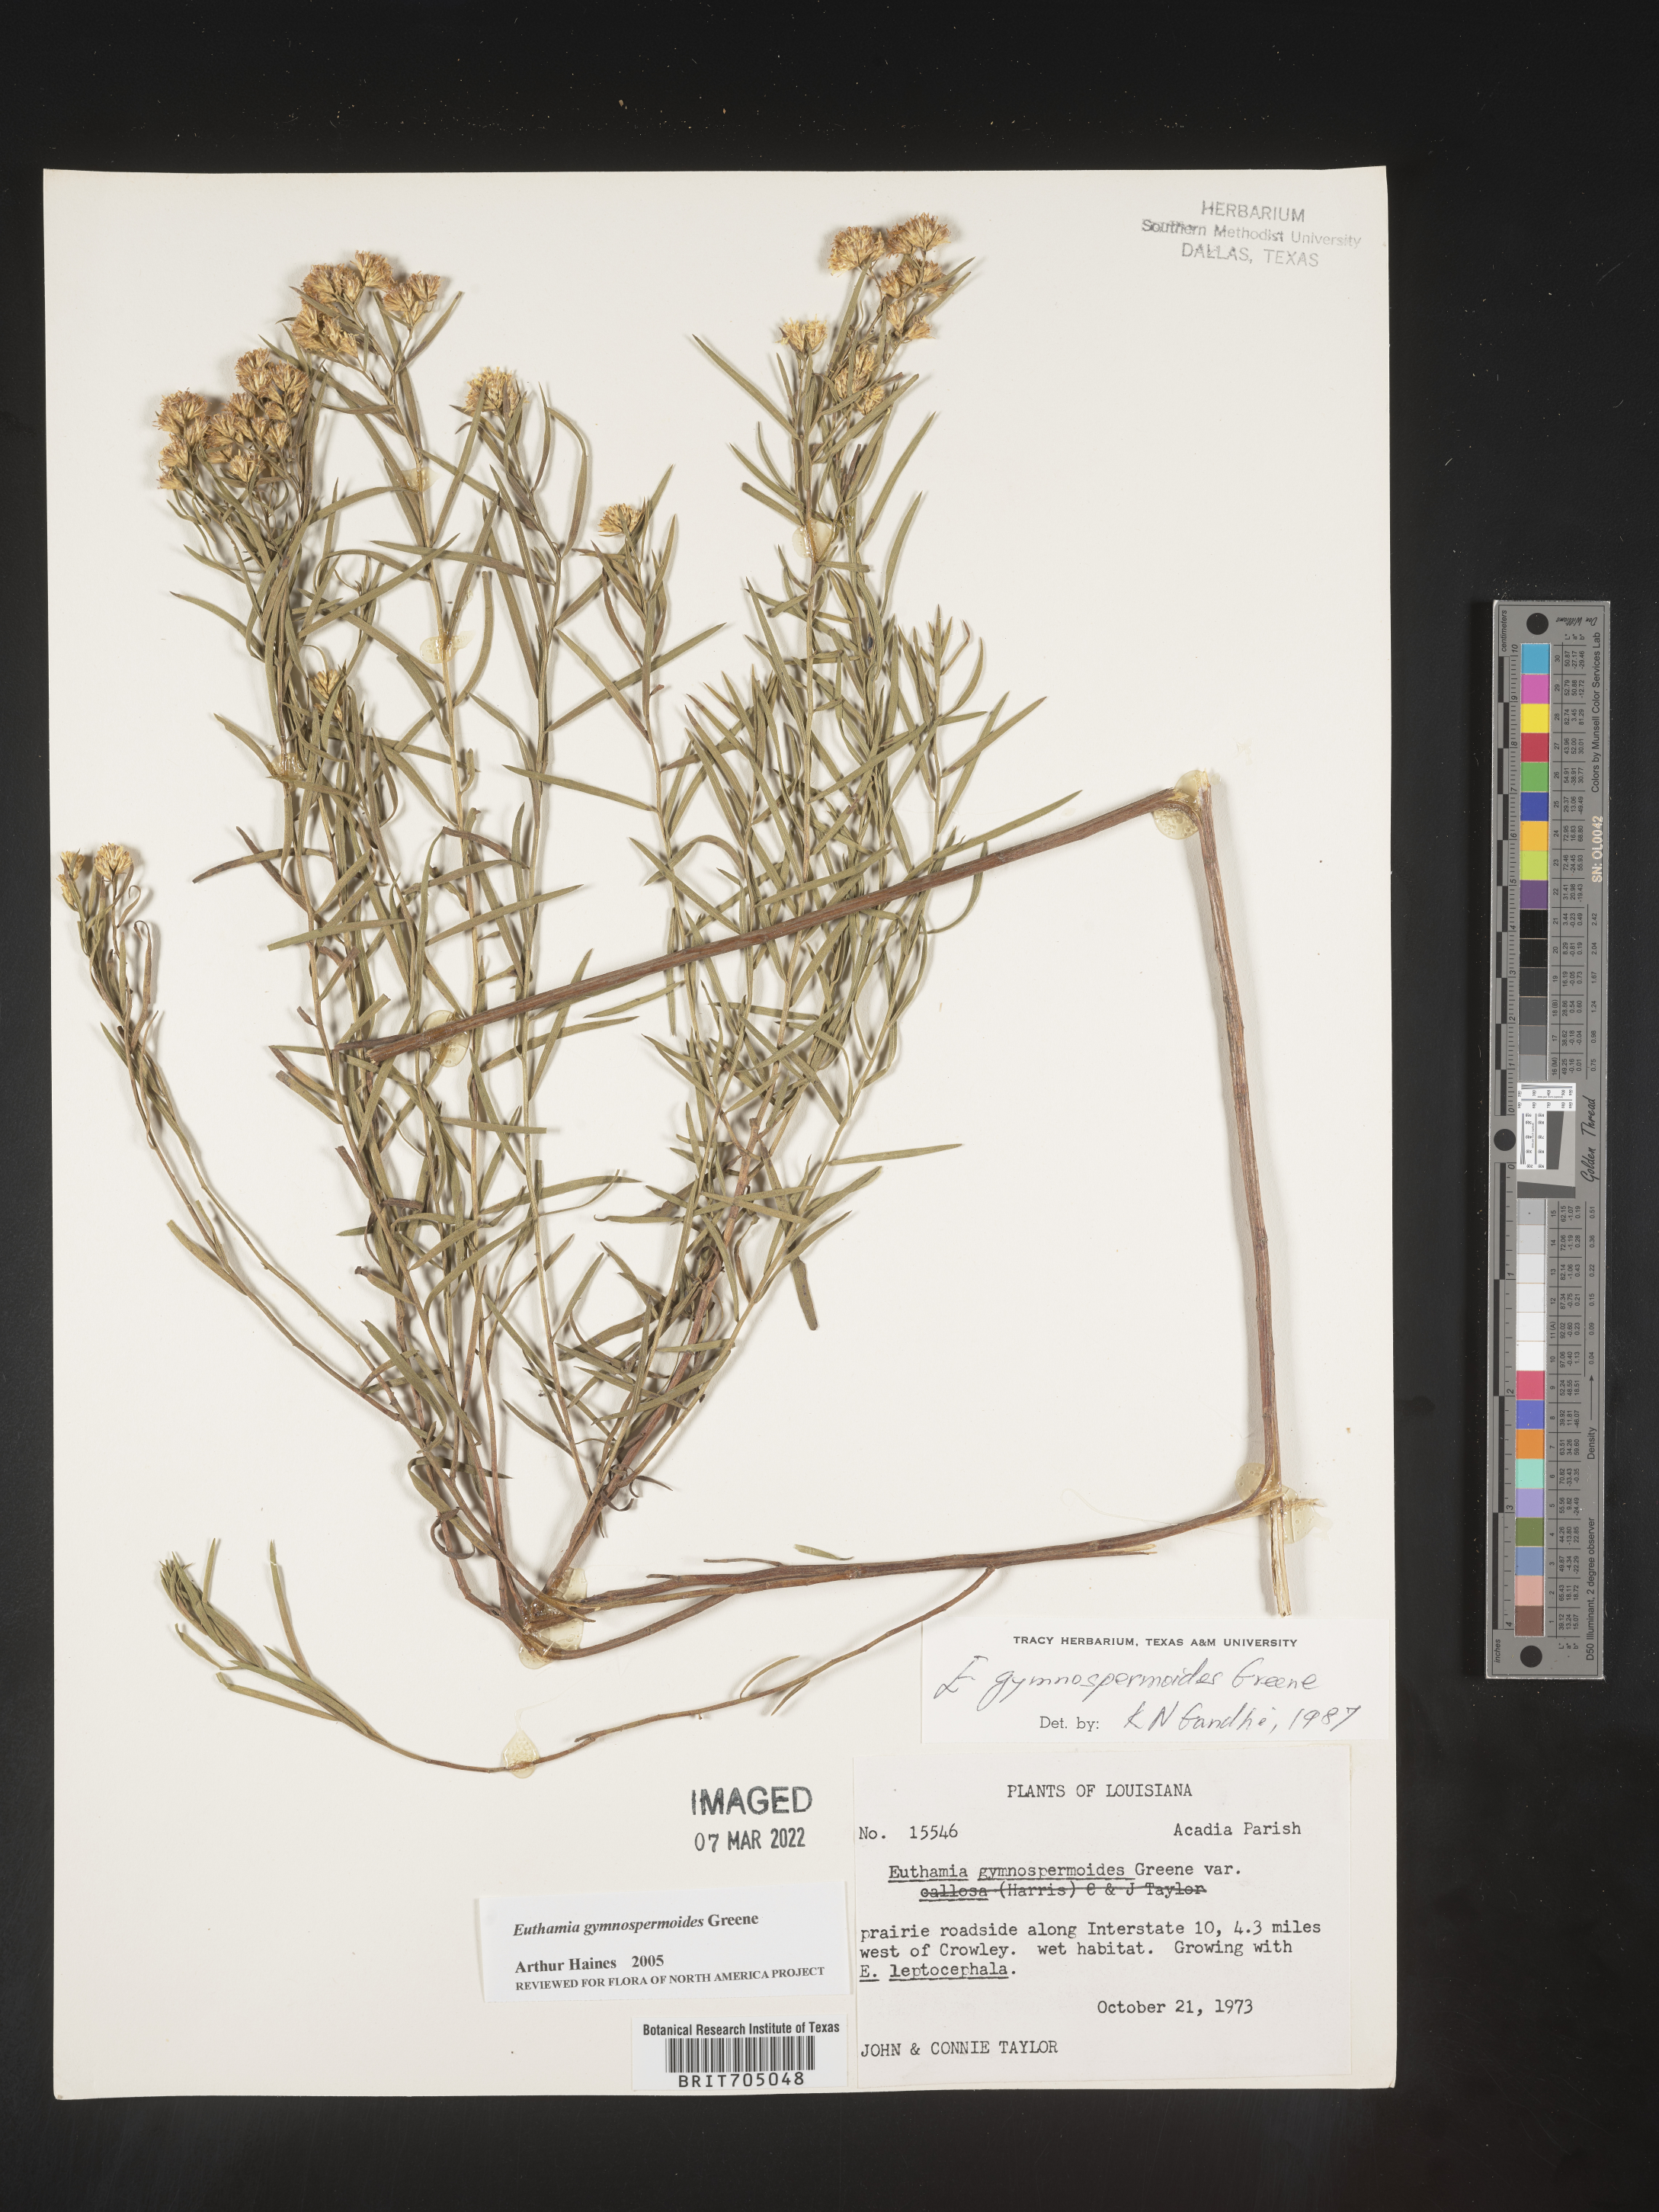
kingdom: Plantae
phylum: Tracheophyta
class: Magnoliopsida
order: Asterales
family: Asteraceae
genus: Euthamia
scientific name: Euthamia gymnospermoides
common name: Great plains goldentop
